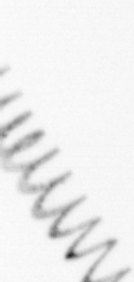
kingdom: Chromista
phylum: Ochrophyta
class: Bacillariophyceae
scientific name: Bacillariophyceae
